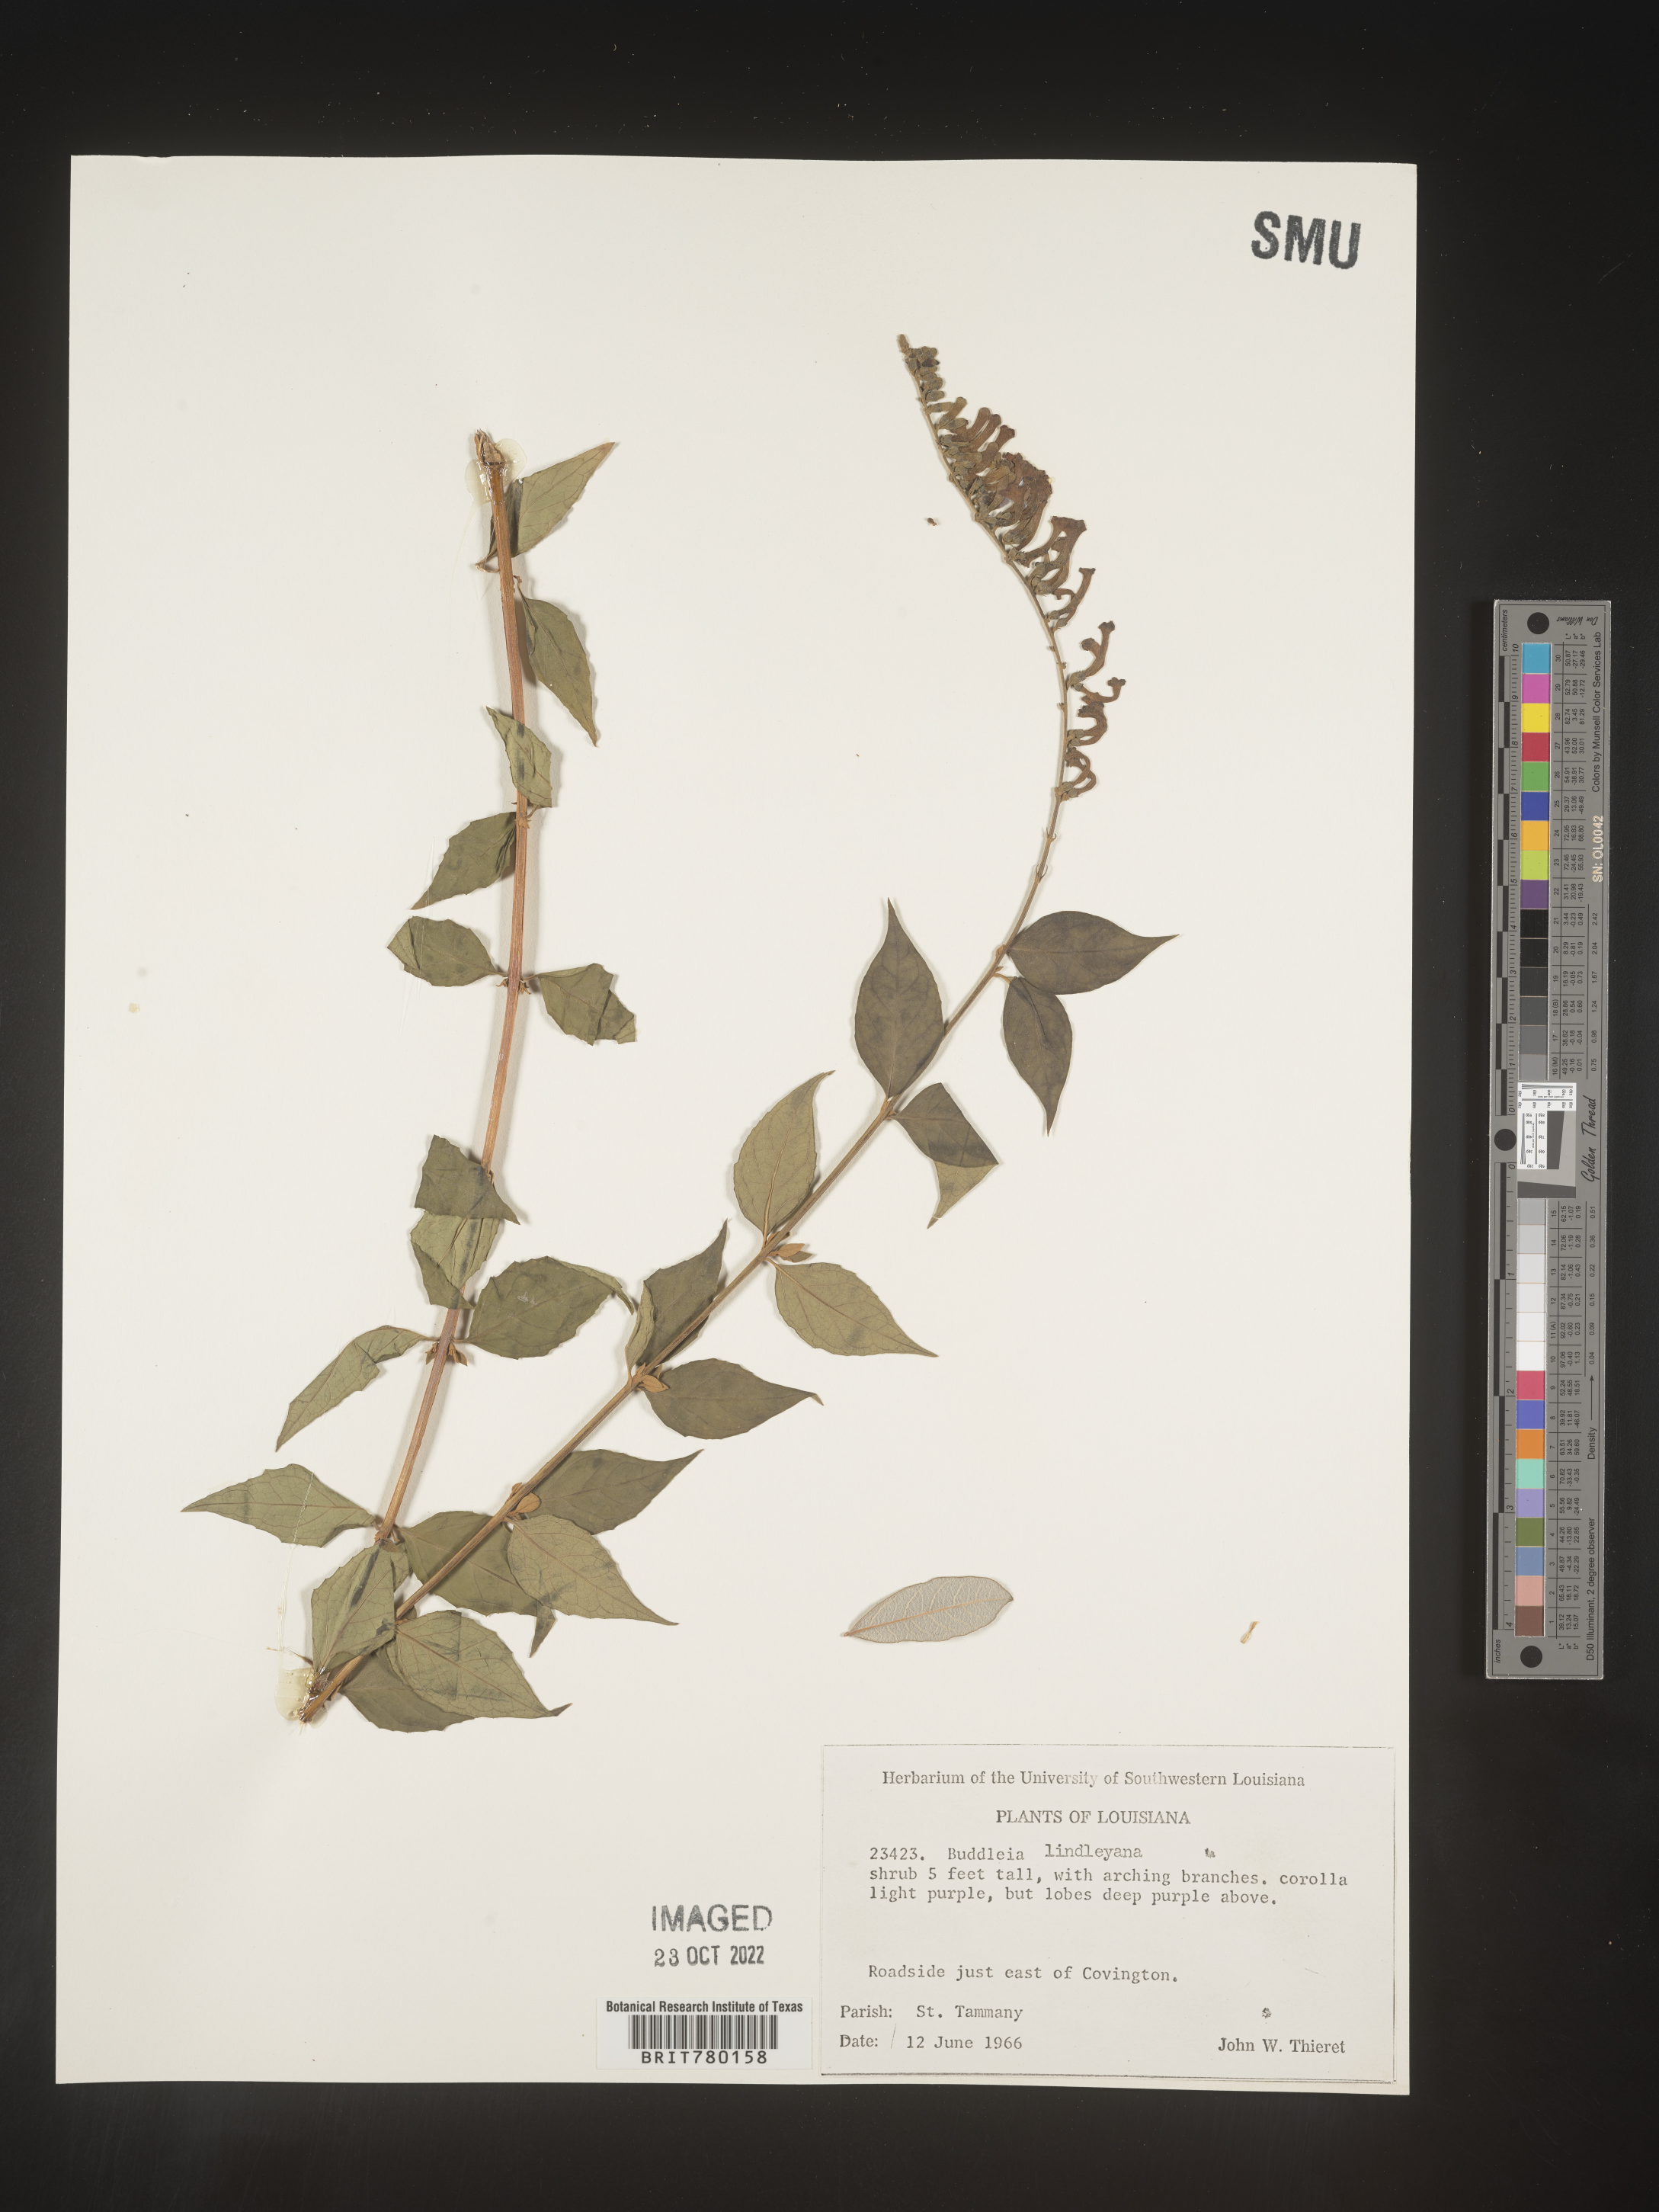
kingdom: Plantae
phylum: Tracheophyta
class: Magnoliopsida
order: Lamiales
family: Scrophulariaceae
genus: Buddleja
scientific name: Buddleja
